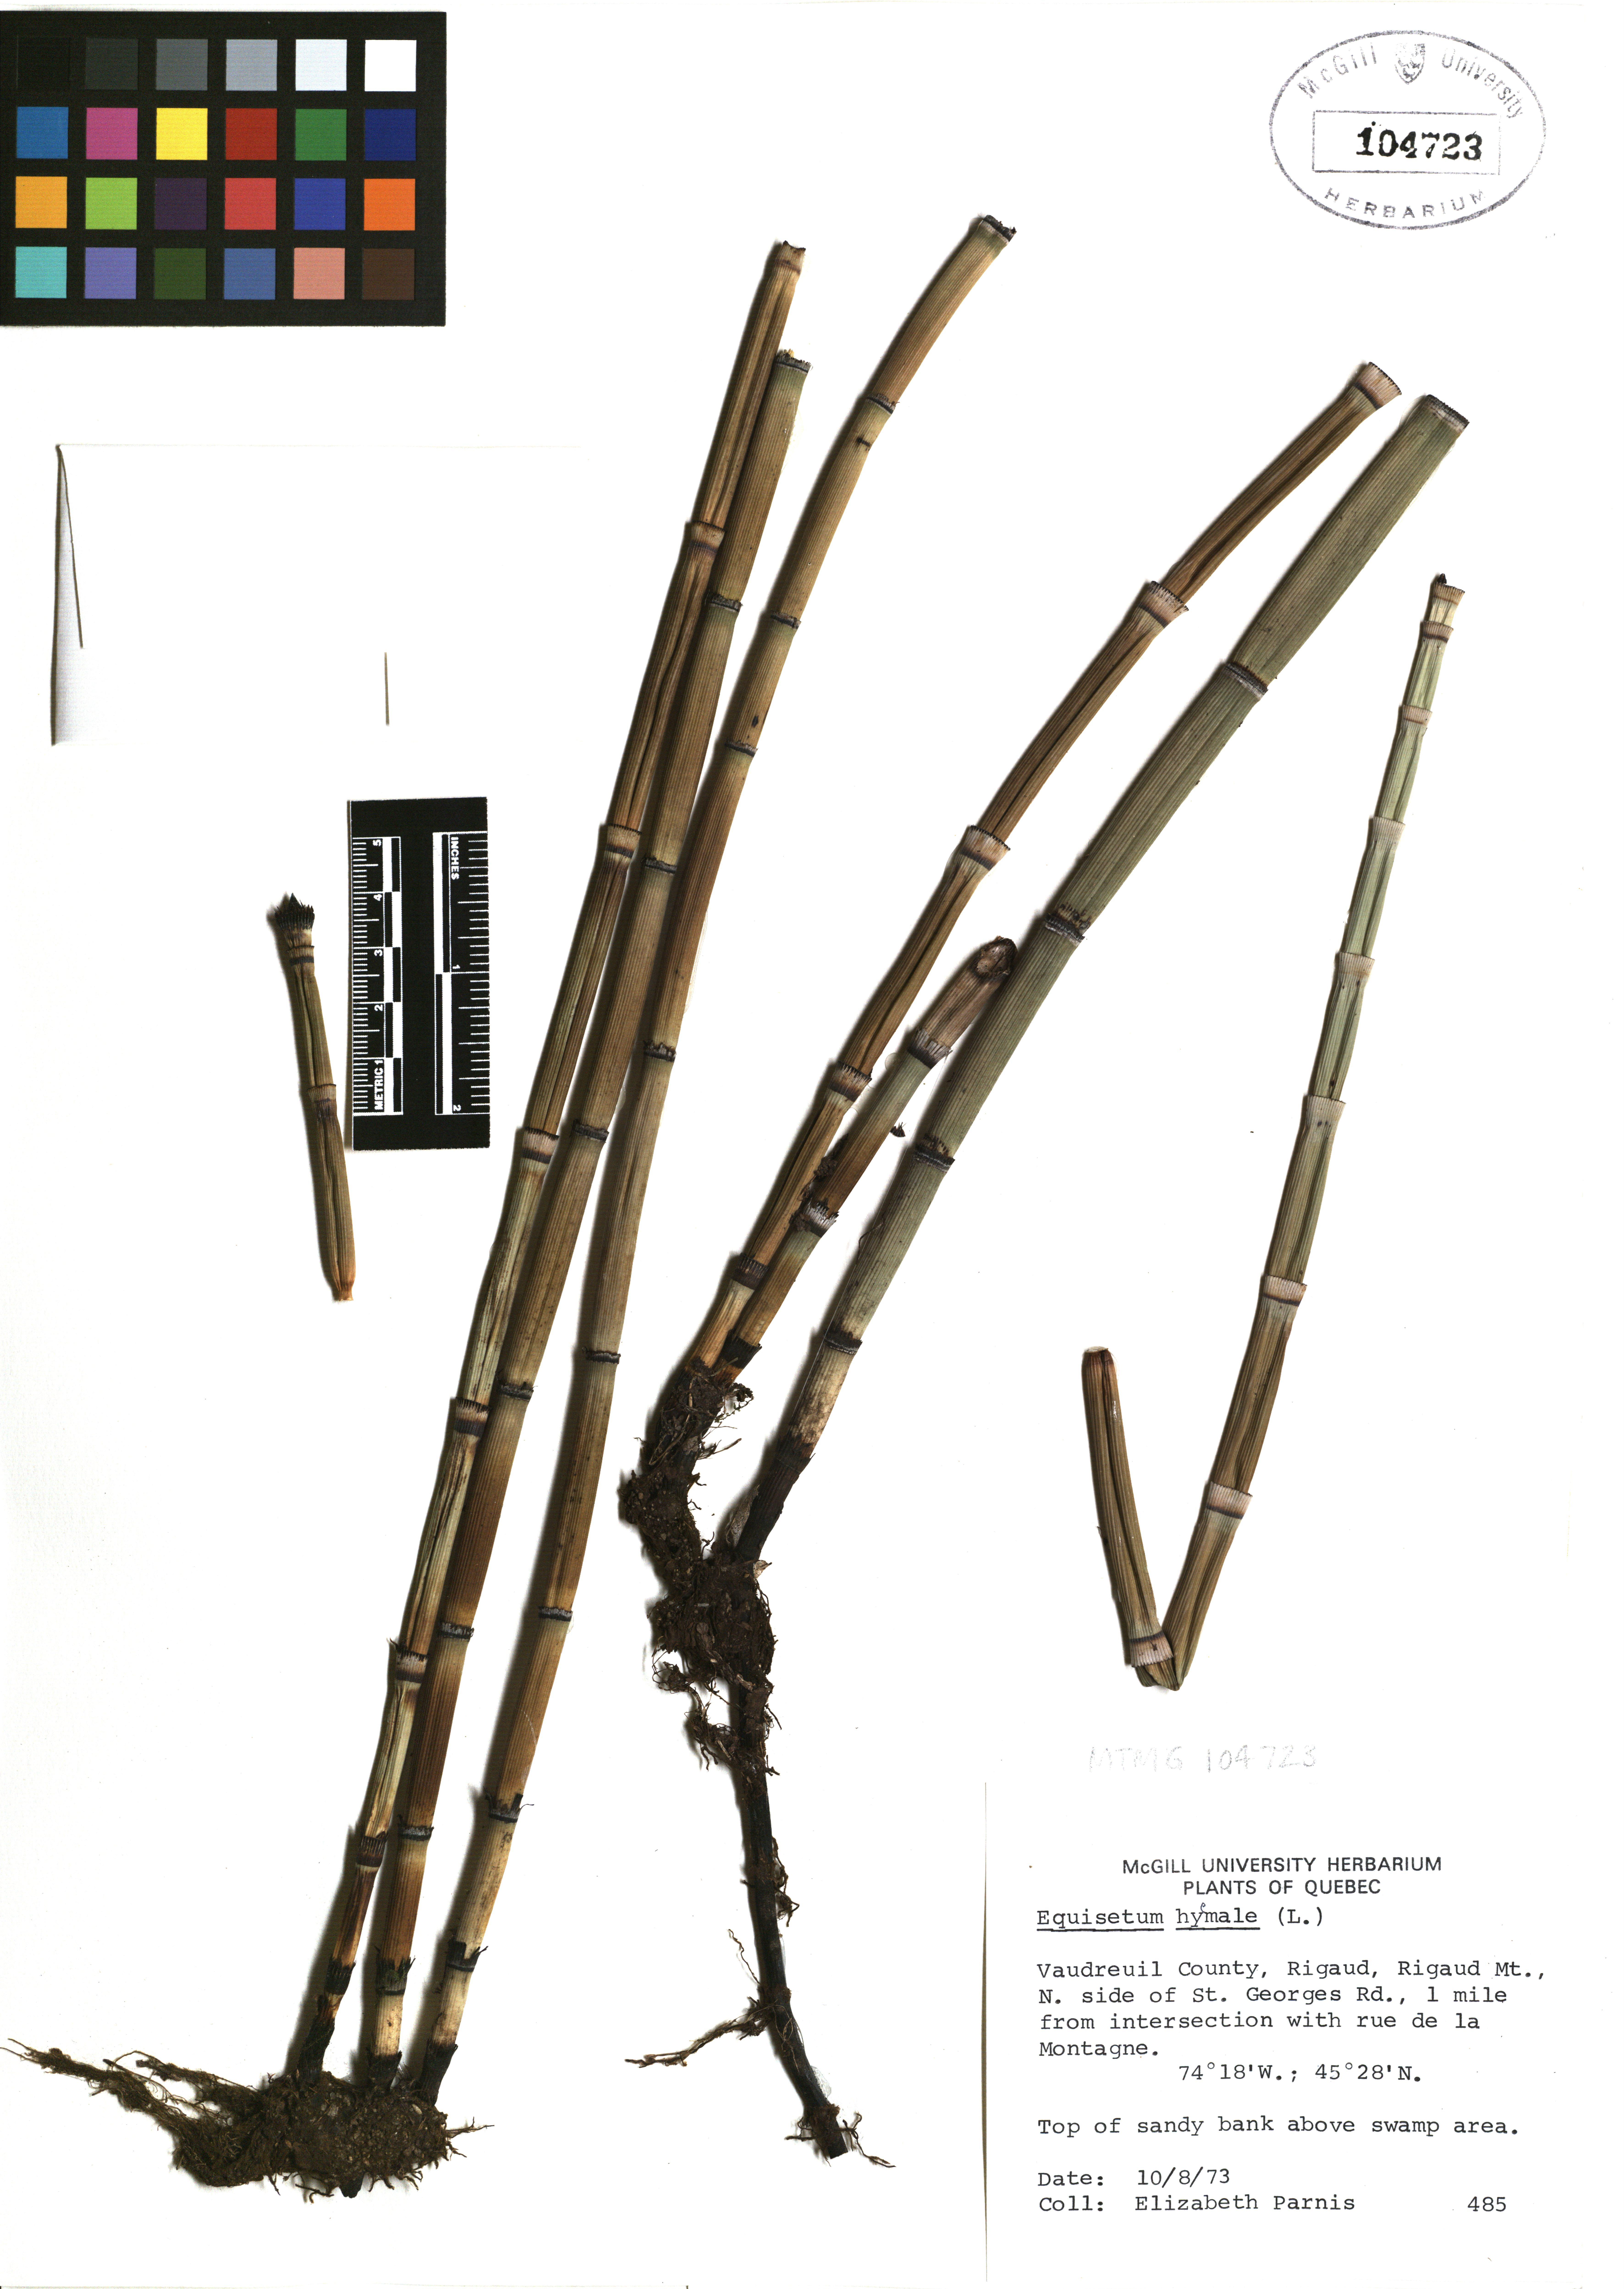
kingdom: Plantae
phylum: Tracheophyta
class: Polypodiopsida
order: Equisetales
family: Equisetaceae
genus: Equisetum
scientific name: Equisetum hyemale
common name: Rough horsetail
